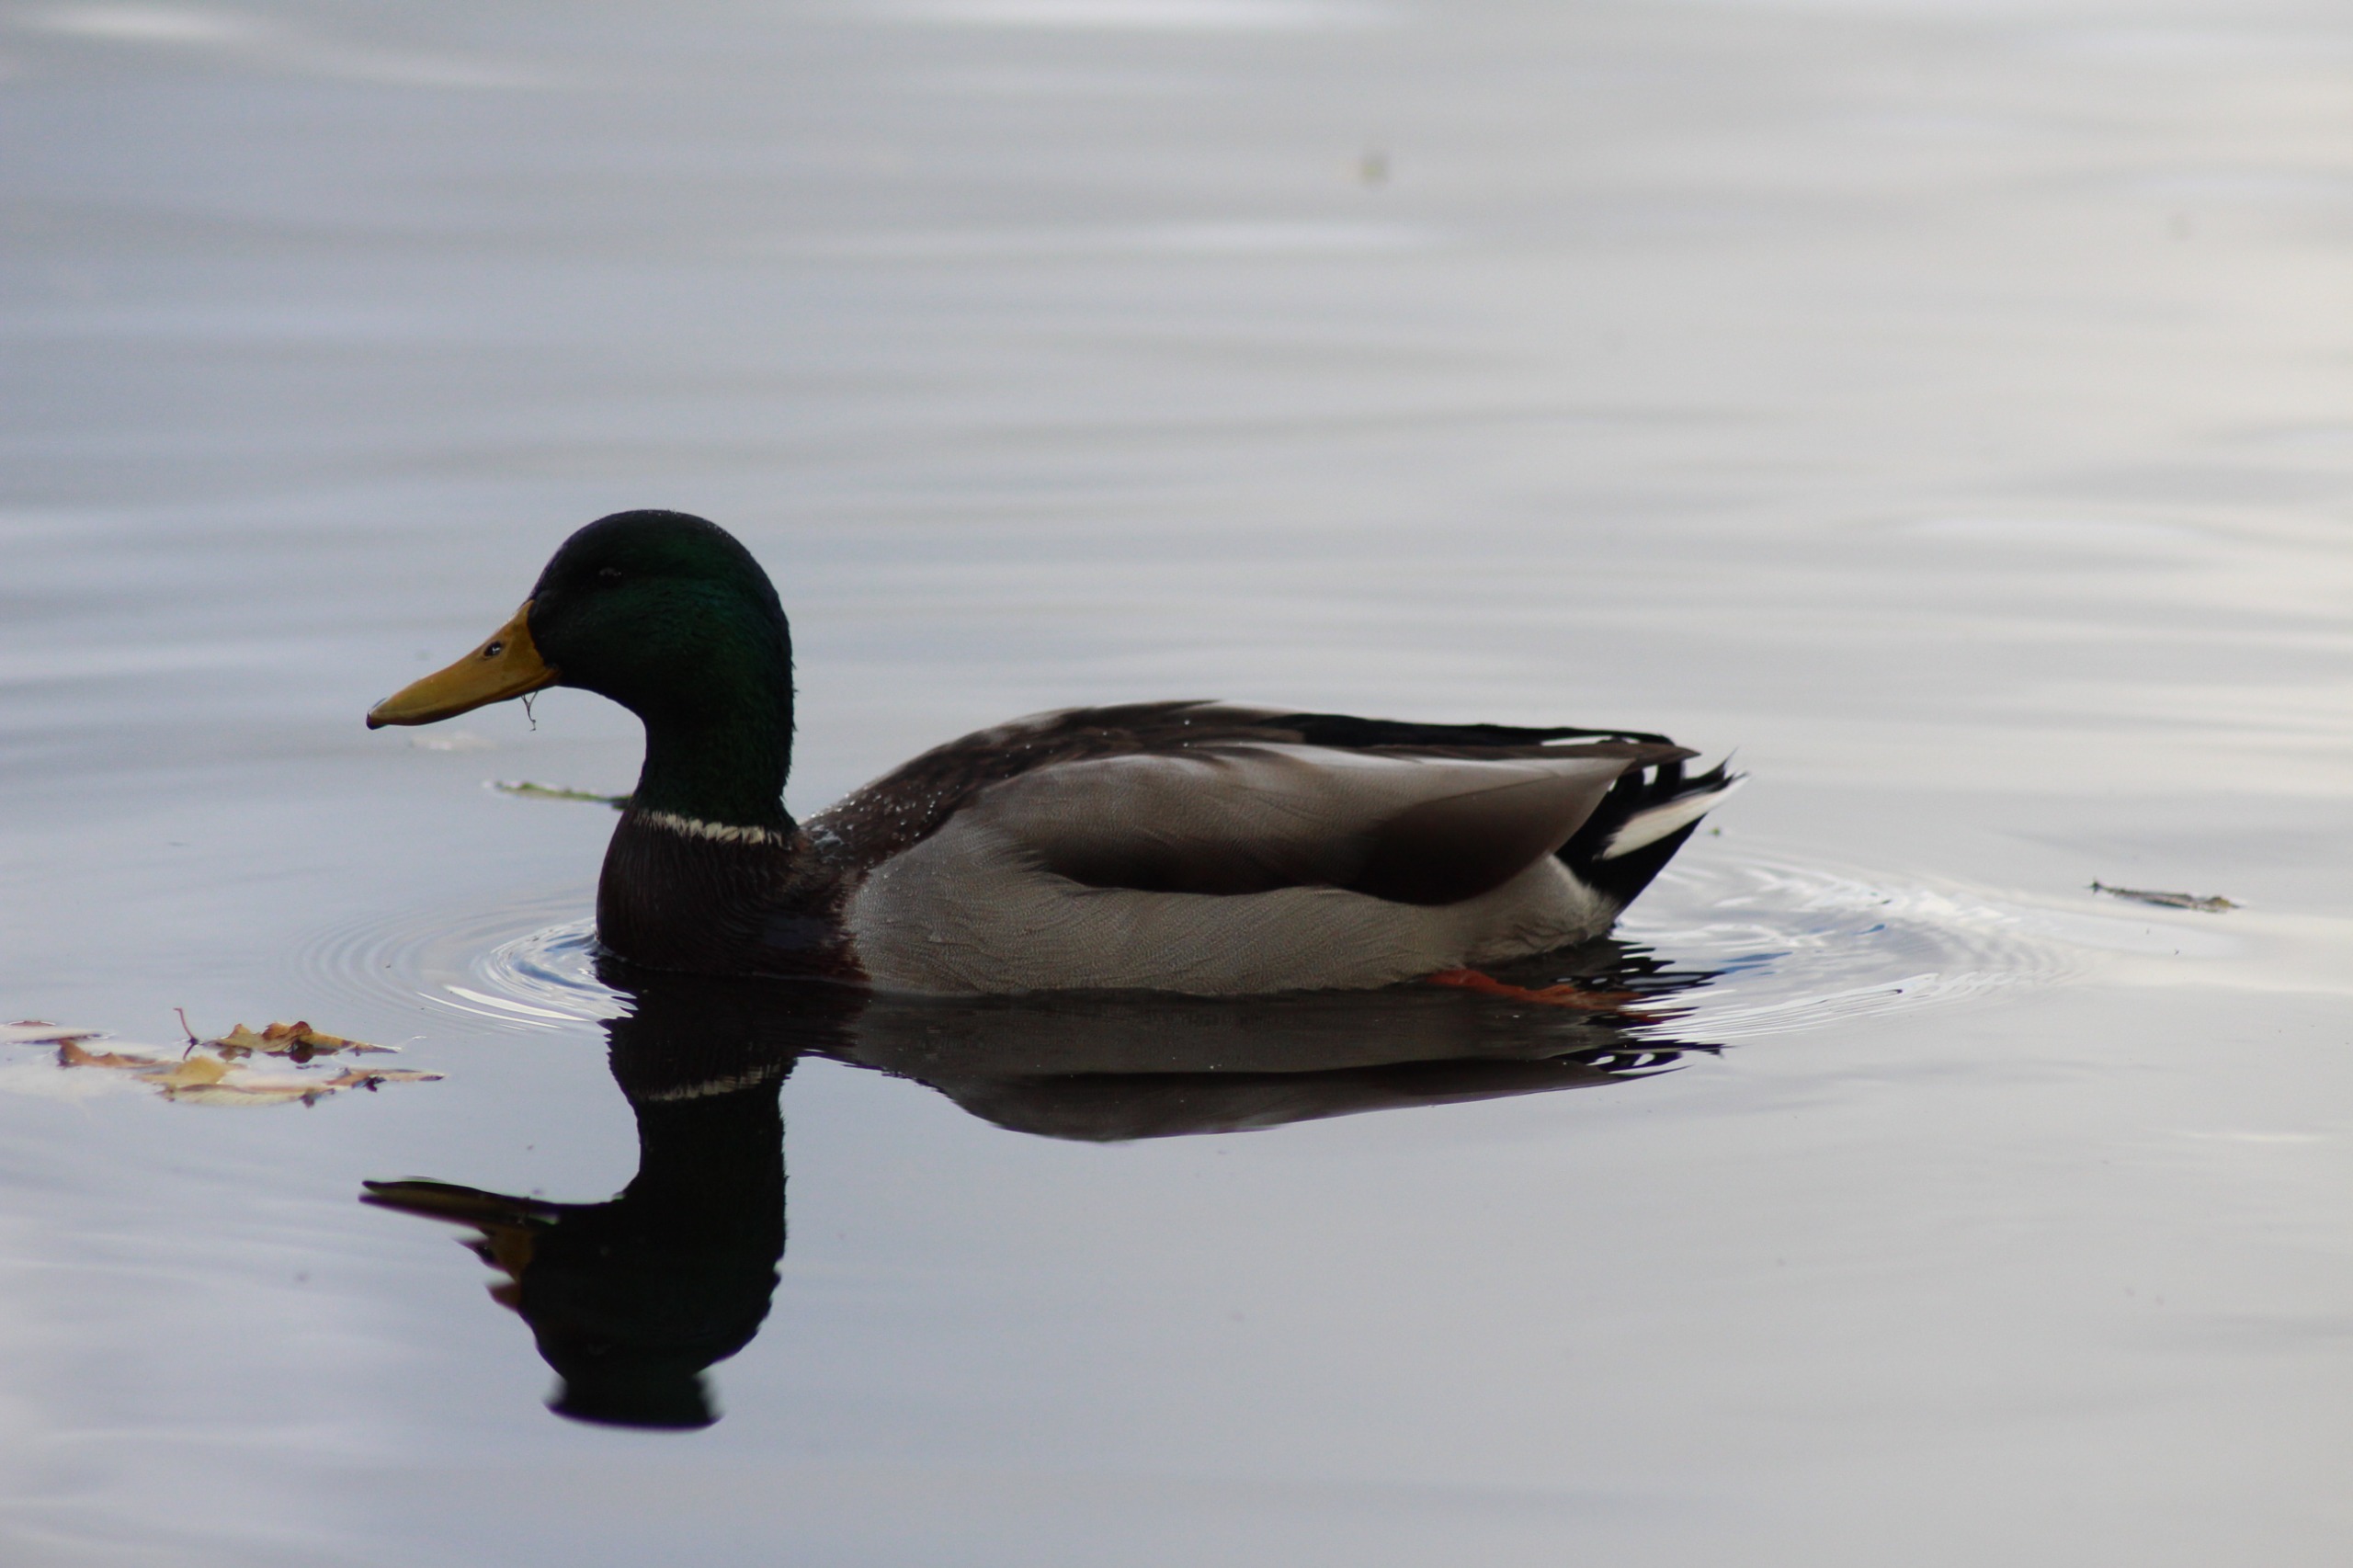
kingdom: Animalia
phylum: Chordata
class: Aves
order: Anseriformes
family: Anatidae
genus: Anas
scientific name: Anas platyrhynchos
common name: Gråand
